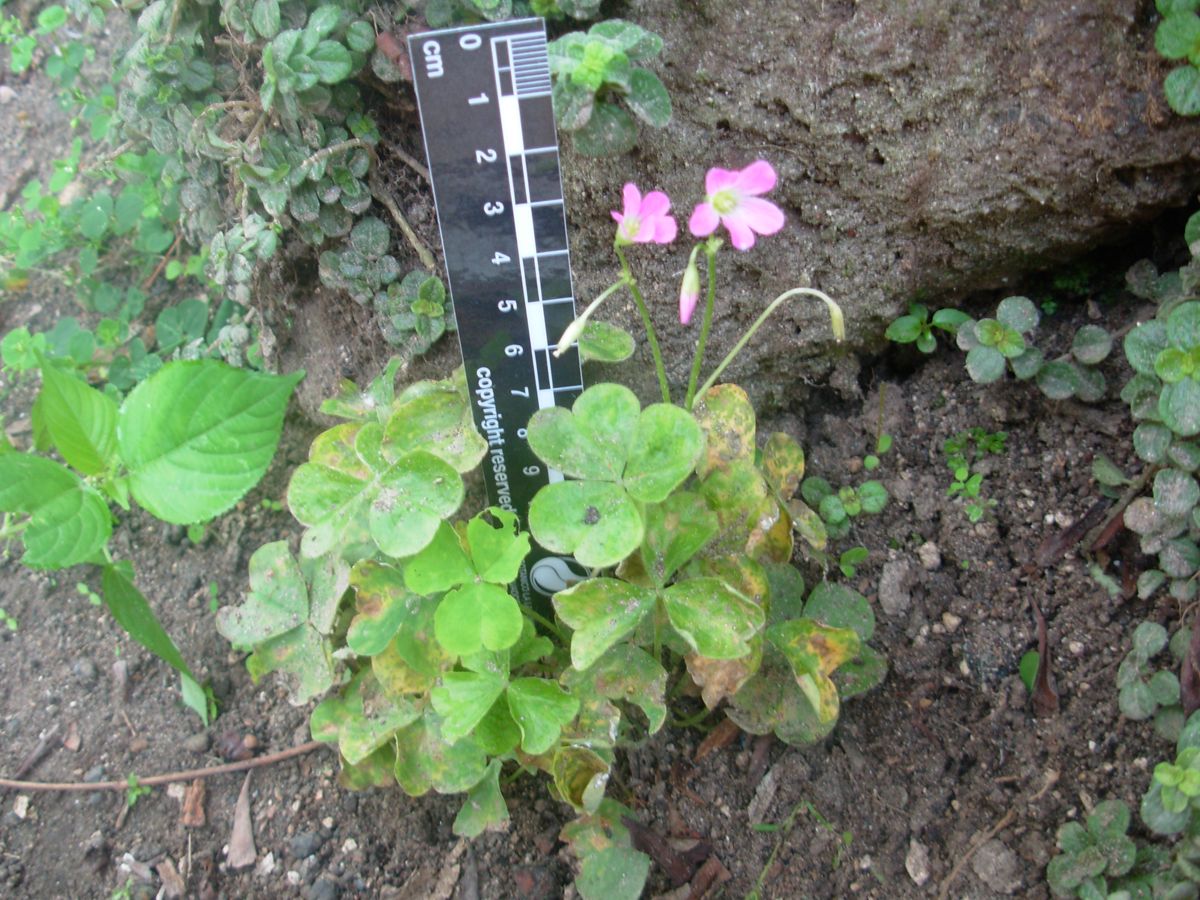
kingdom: Plantae
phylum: Tracheophyta
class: Magnoliopsida
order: Oxalidales
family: Oxalidaceae
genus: Oxalis
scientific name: Oxalis debilis
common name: Large-flowered pink-sorrel
